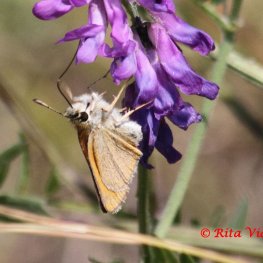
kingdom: Animalia
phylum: Arthropoda
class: Insecta
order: Lepidoptera
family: Hesperiidae
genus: Thymelicus
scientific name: Thymelicus lineola
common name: European Skipper
